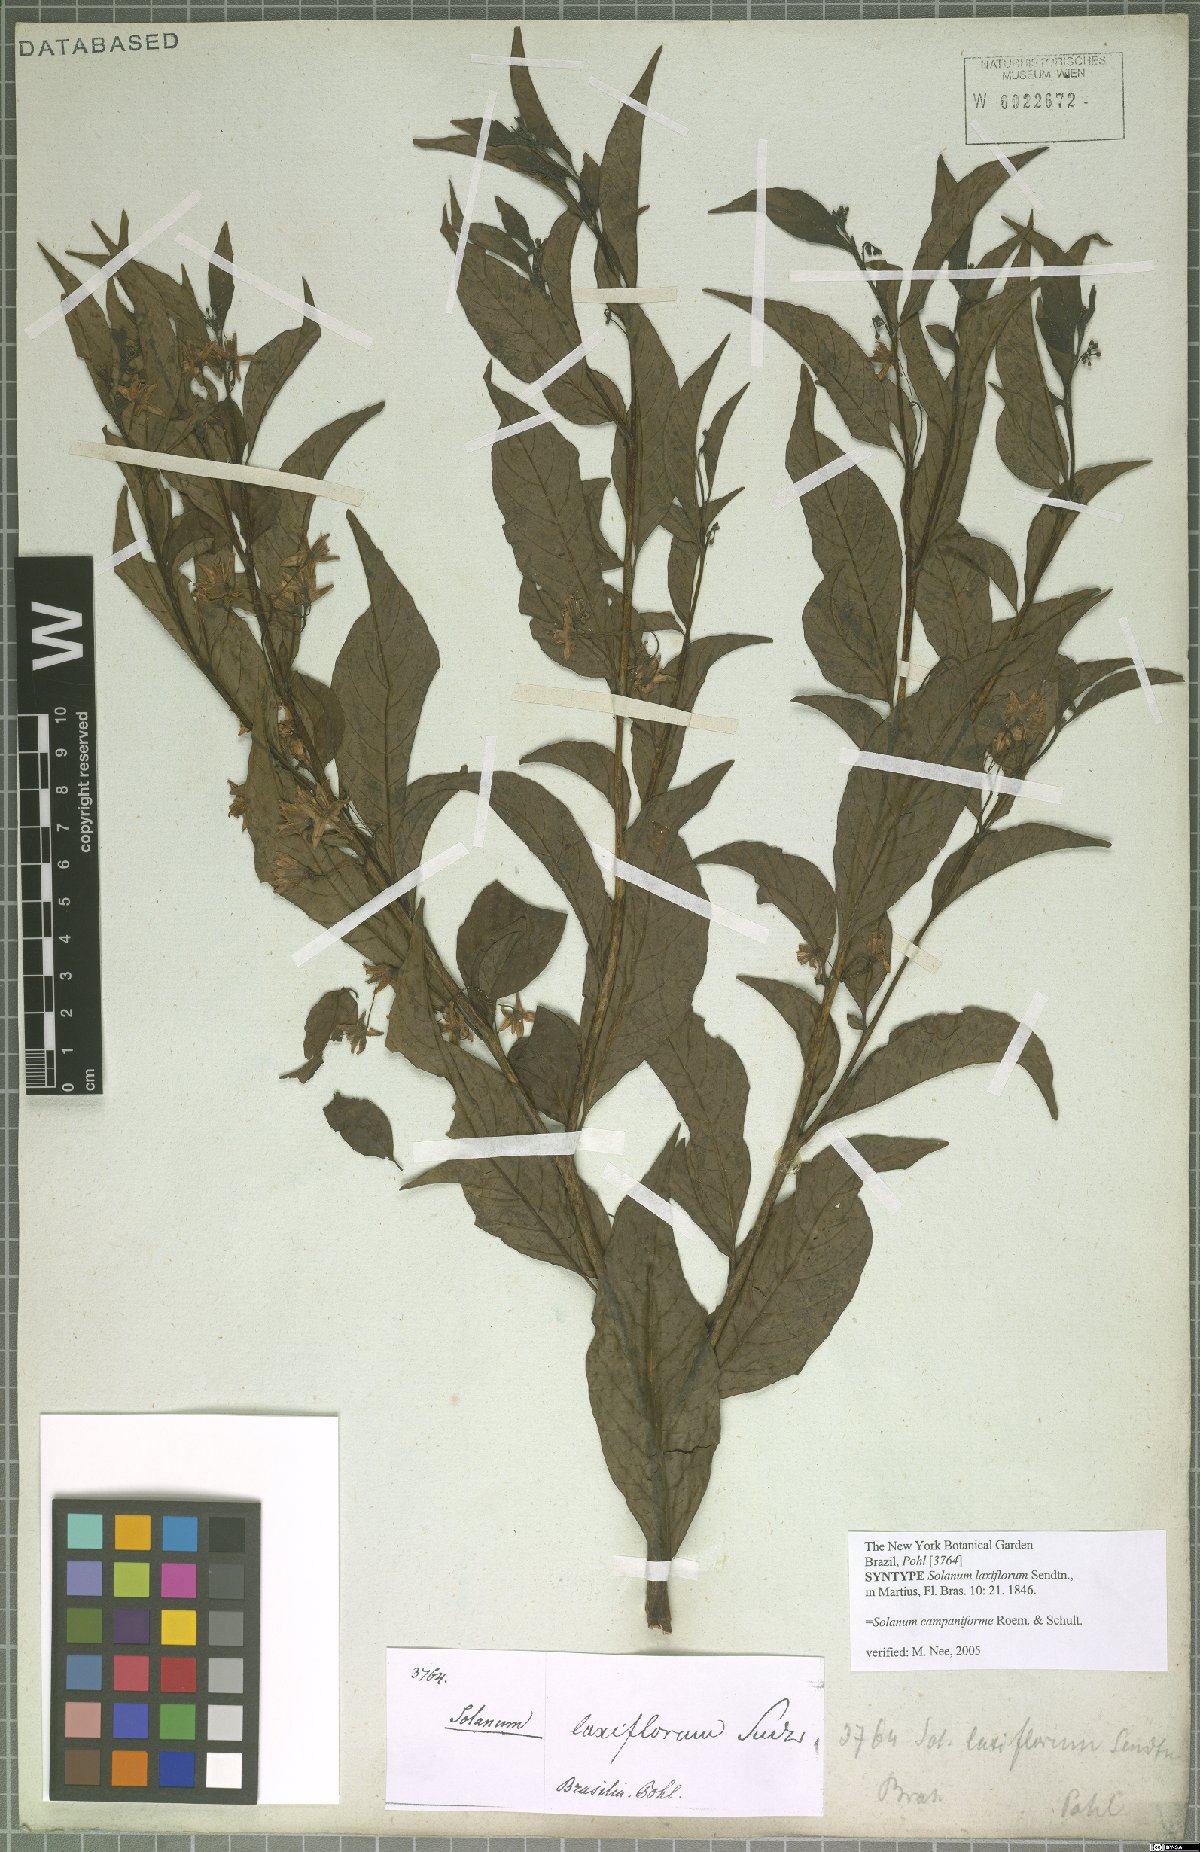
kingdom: Plantae
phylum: Tracheophyta
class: Magnoliopsida
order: Solanales
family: Solanaceae
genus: Solanum
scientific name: Solanum campaniforme
